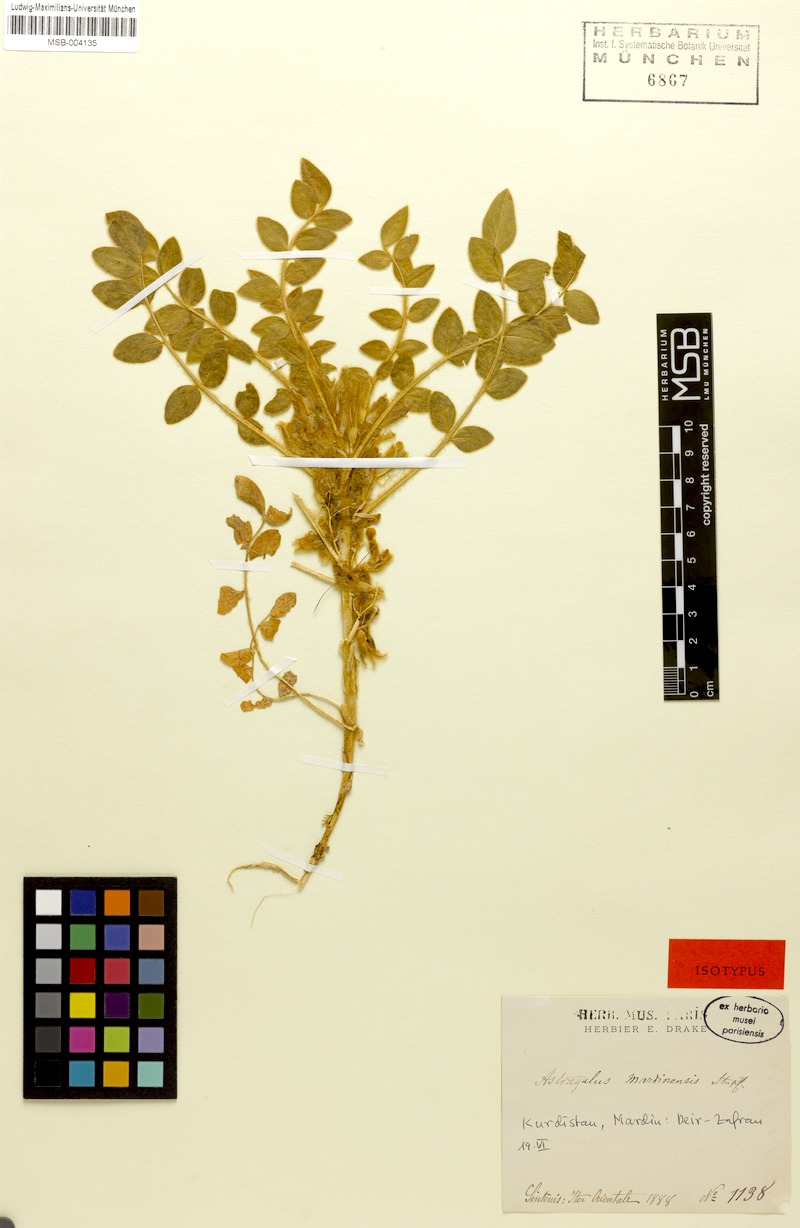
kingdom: Plantae
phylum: Tracheophyta
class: Magnoliopsida
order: Fabales
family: Fabaceae
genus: Astragalus
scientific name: Astragalus mardinensis
